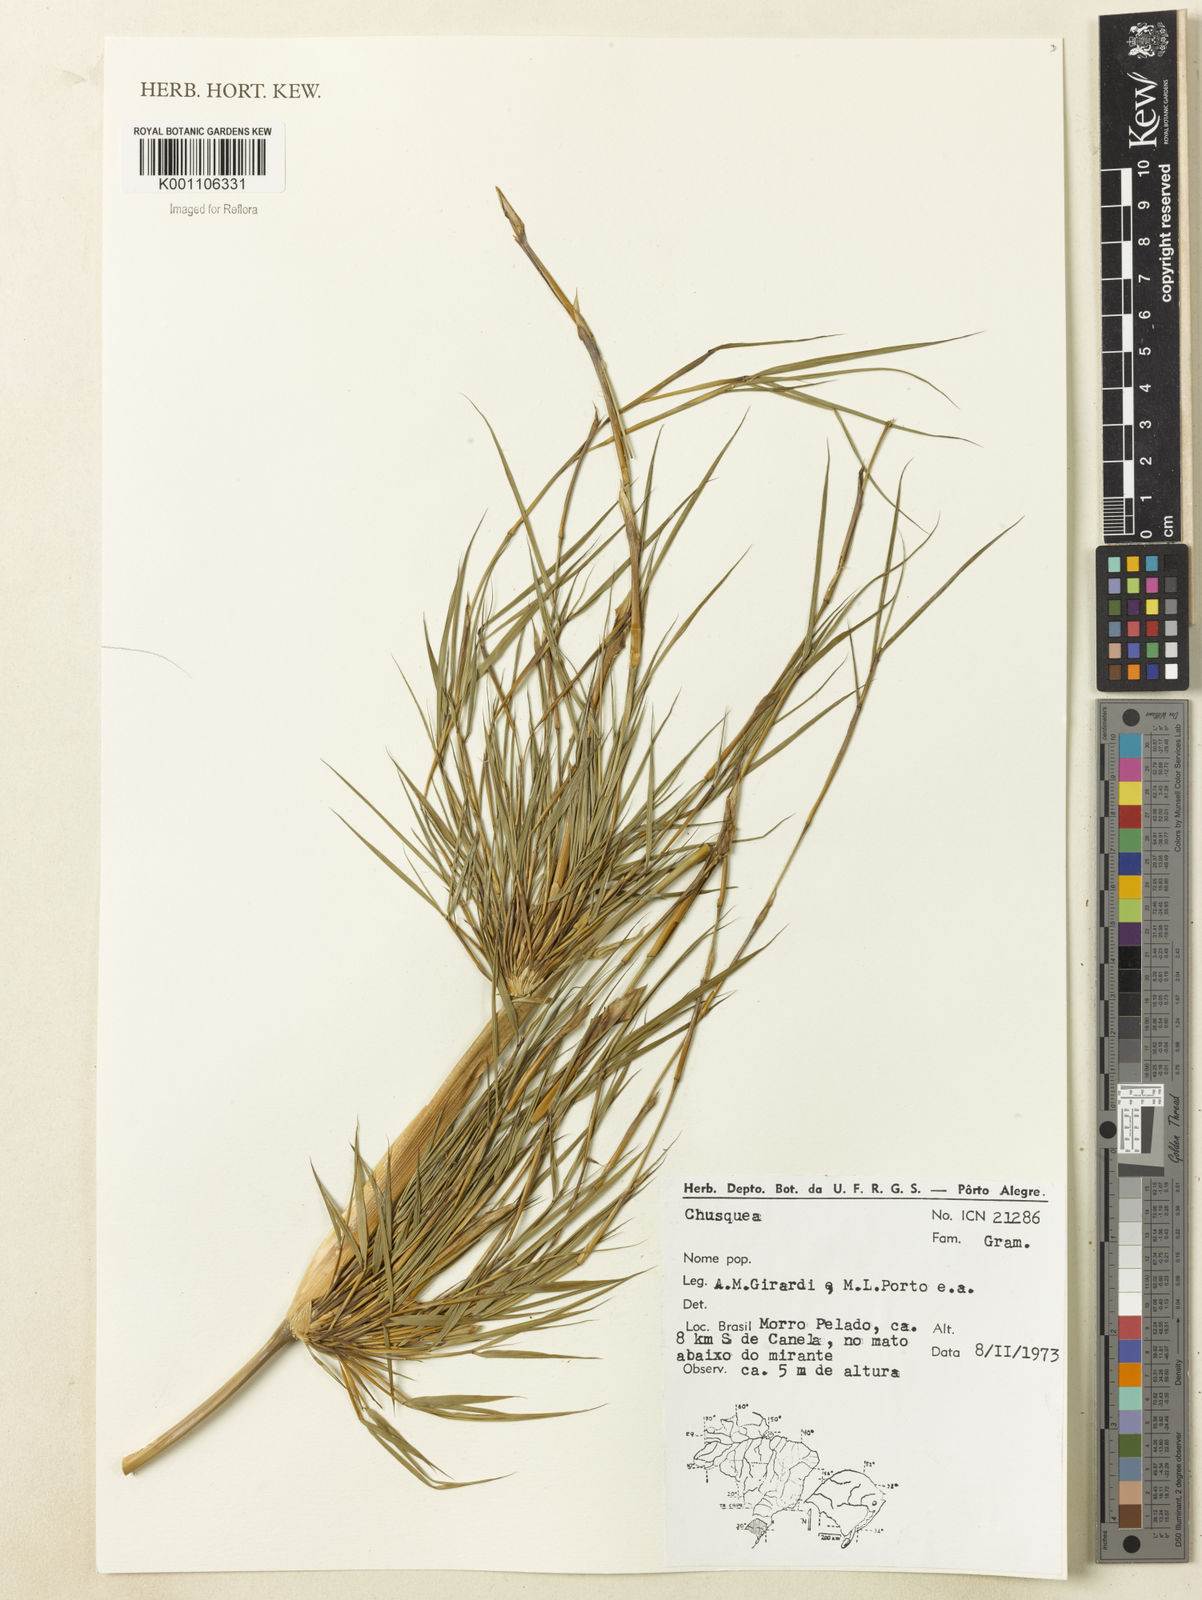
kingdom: Plantae
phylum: Tracheophyta
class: Liliopsida
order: Poales
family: Poaceae
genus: Chusquea
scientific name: Chusquea
